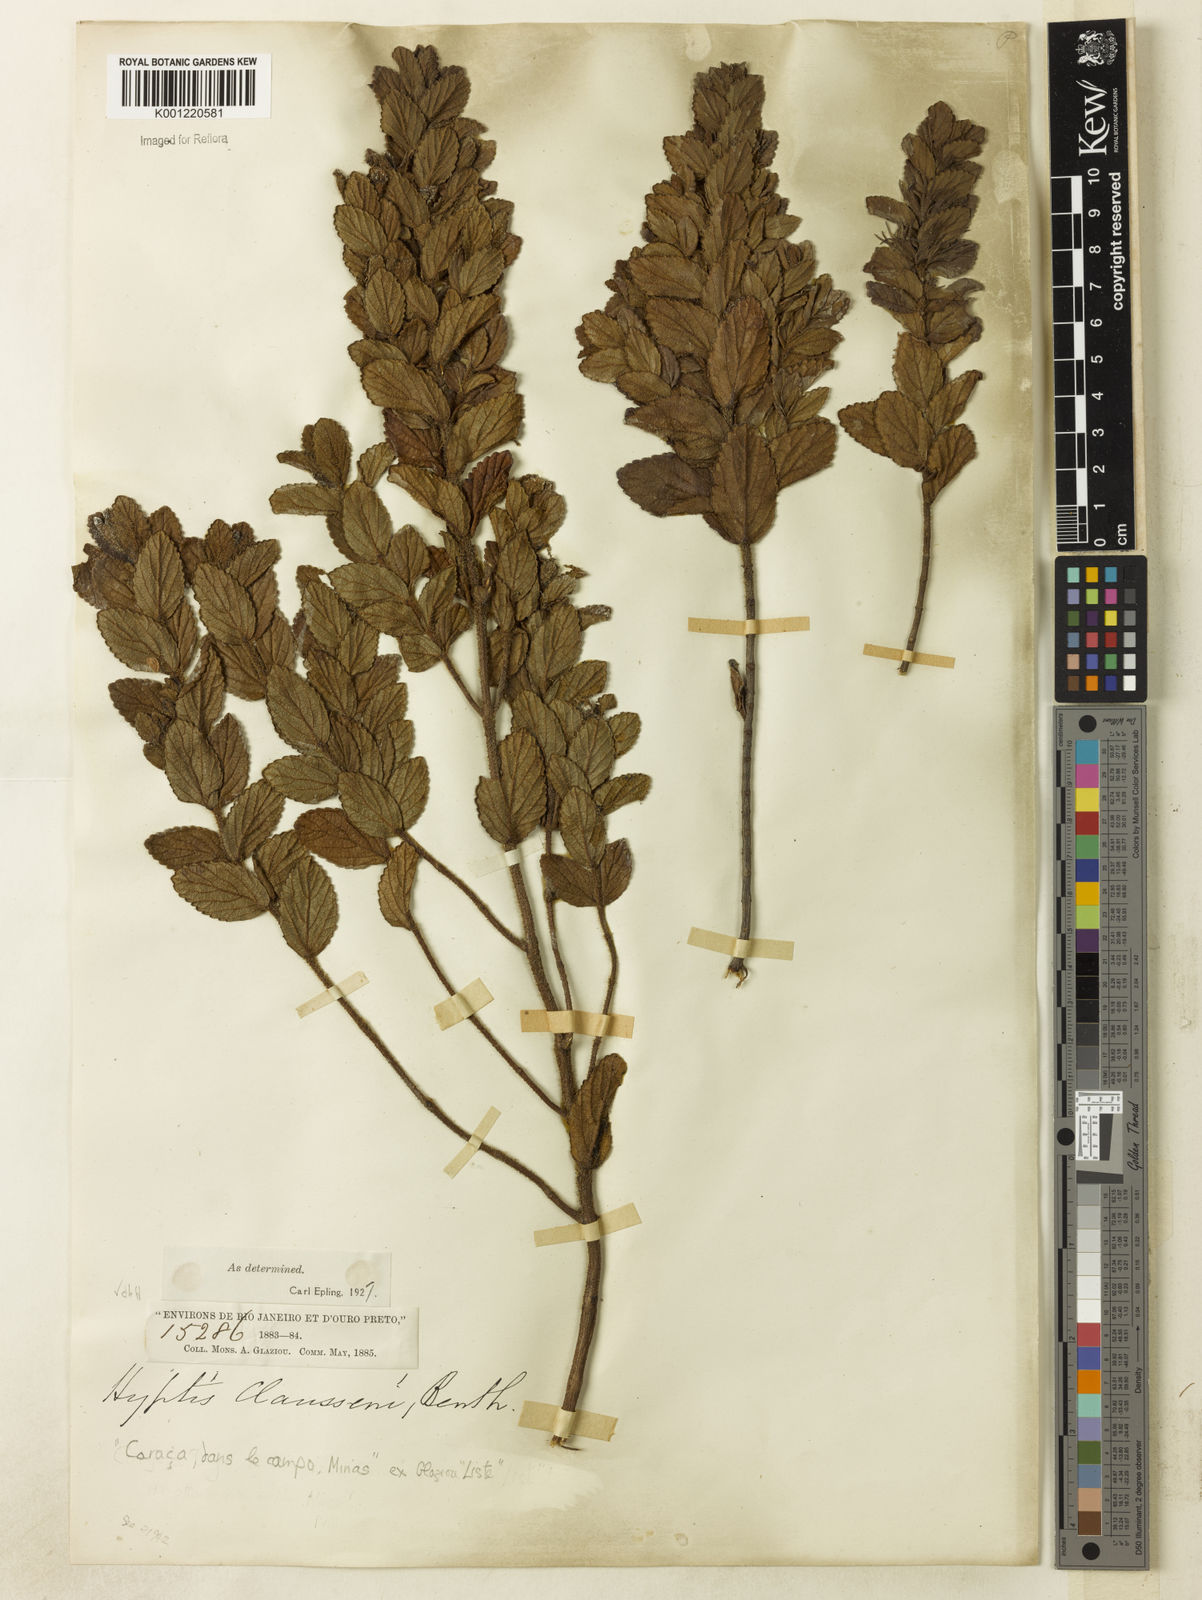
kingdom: Plantae
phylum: Tracheophyta
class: Magnoliopsida
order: Lamiales
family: Lamiaceae
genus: Hyptidendron
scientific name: Hyptidendron claussenii
